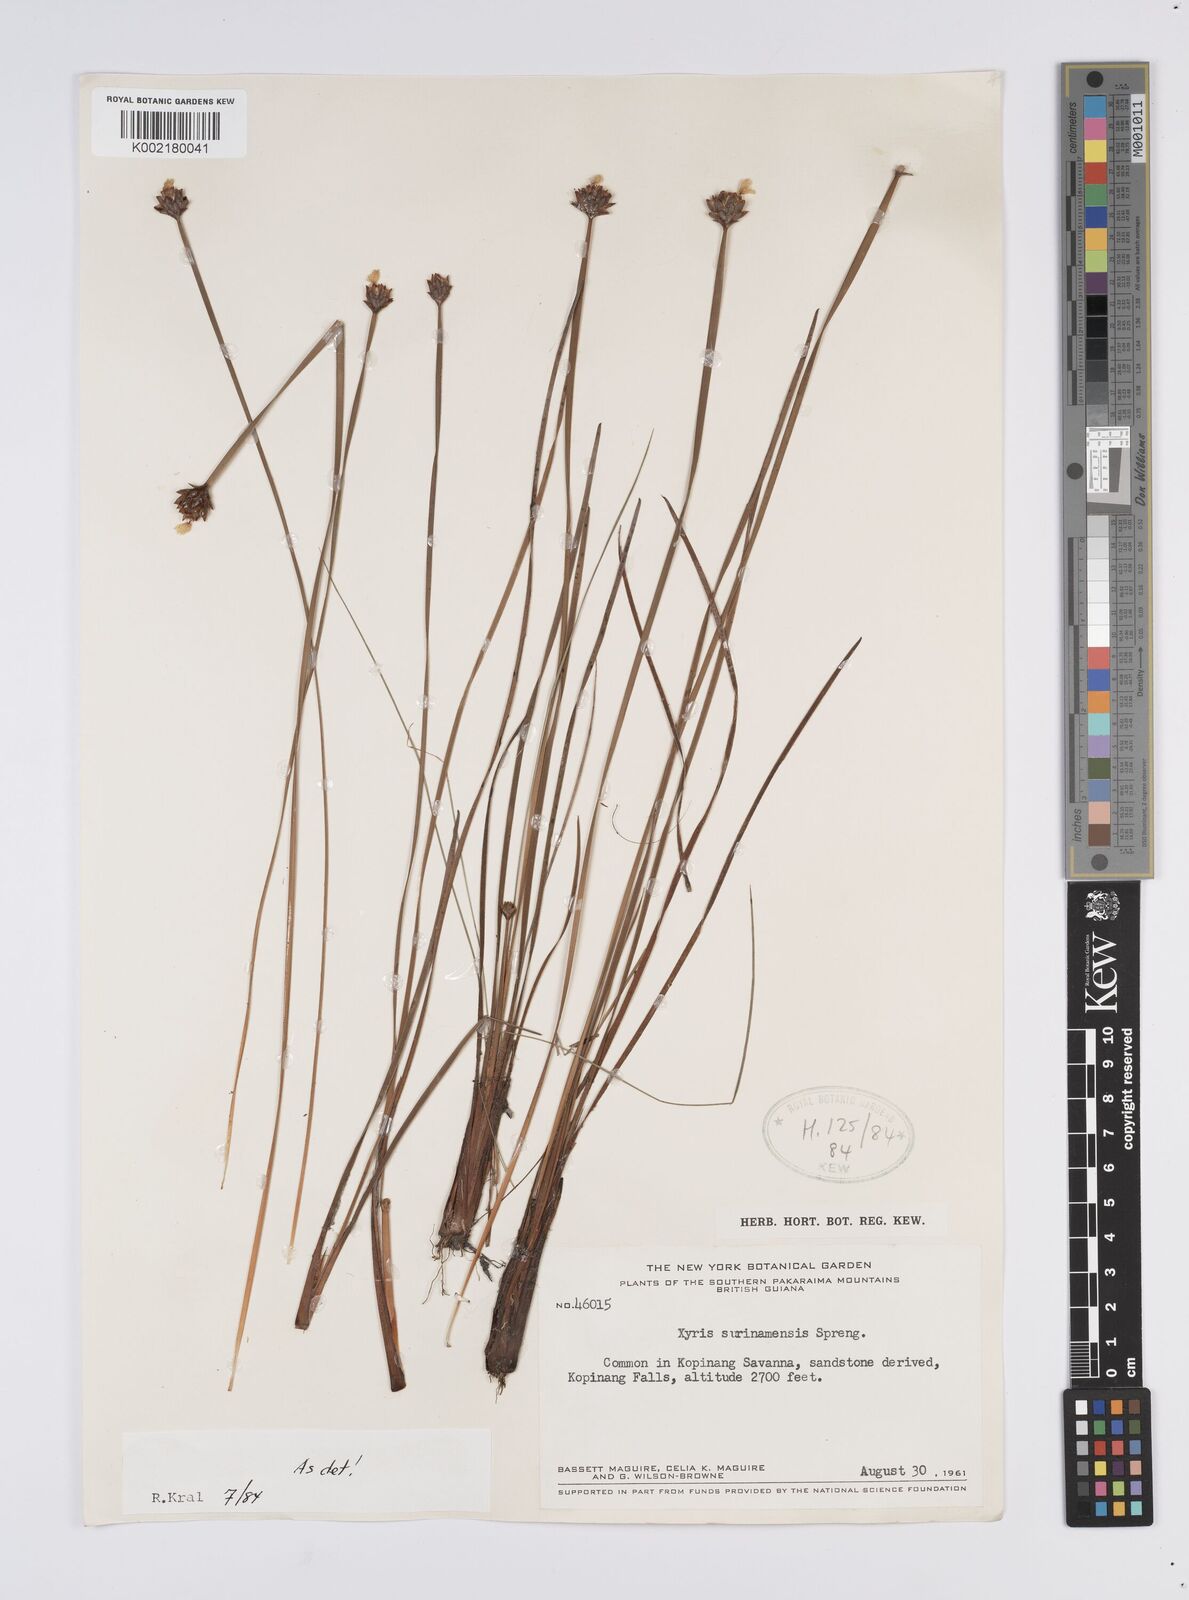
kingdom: Plantae
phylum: Tracheophyta
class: Liliopsida
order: Poales
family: Xyridaceae
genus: Xyris
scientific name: Xyris surinamensis
